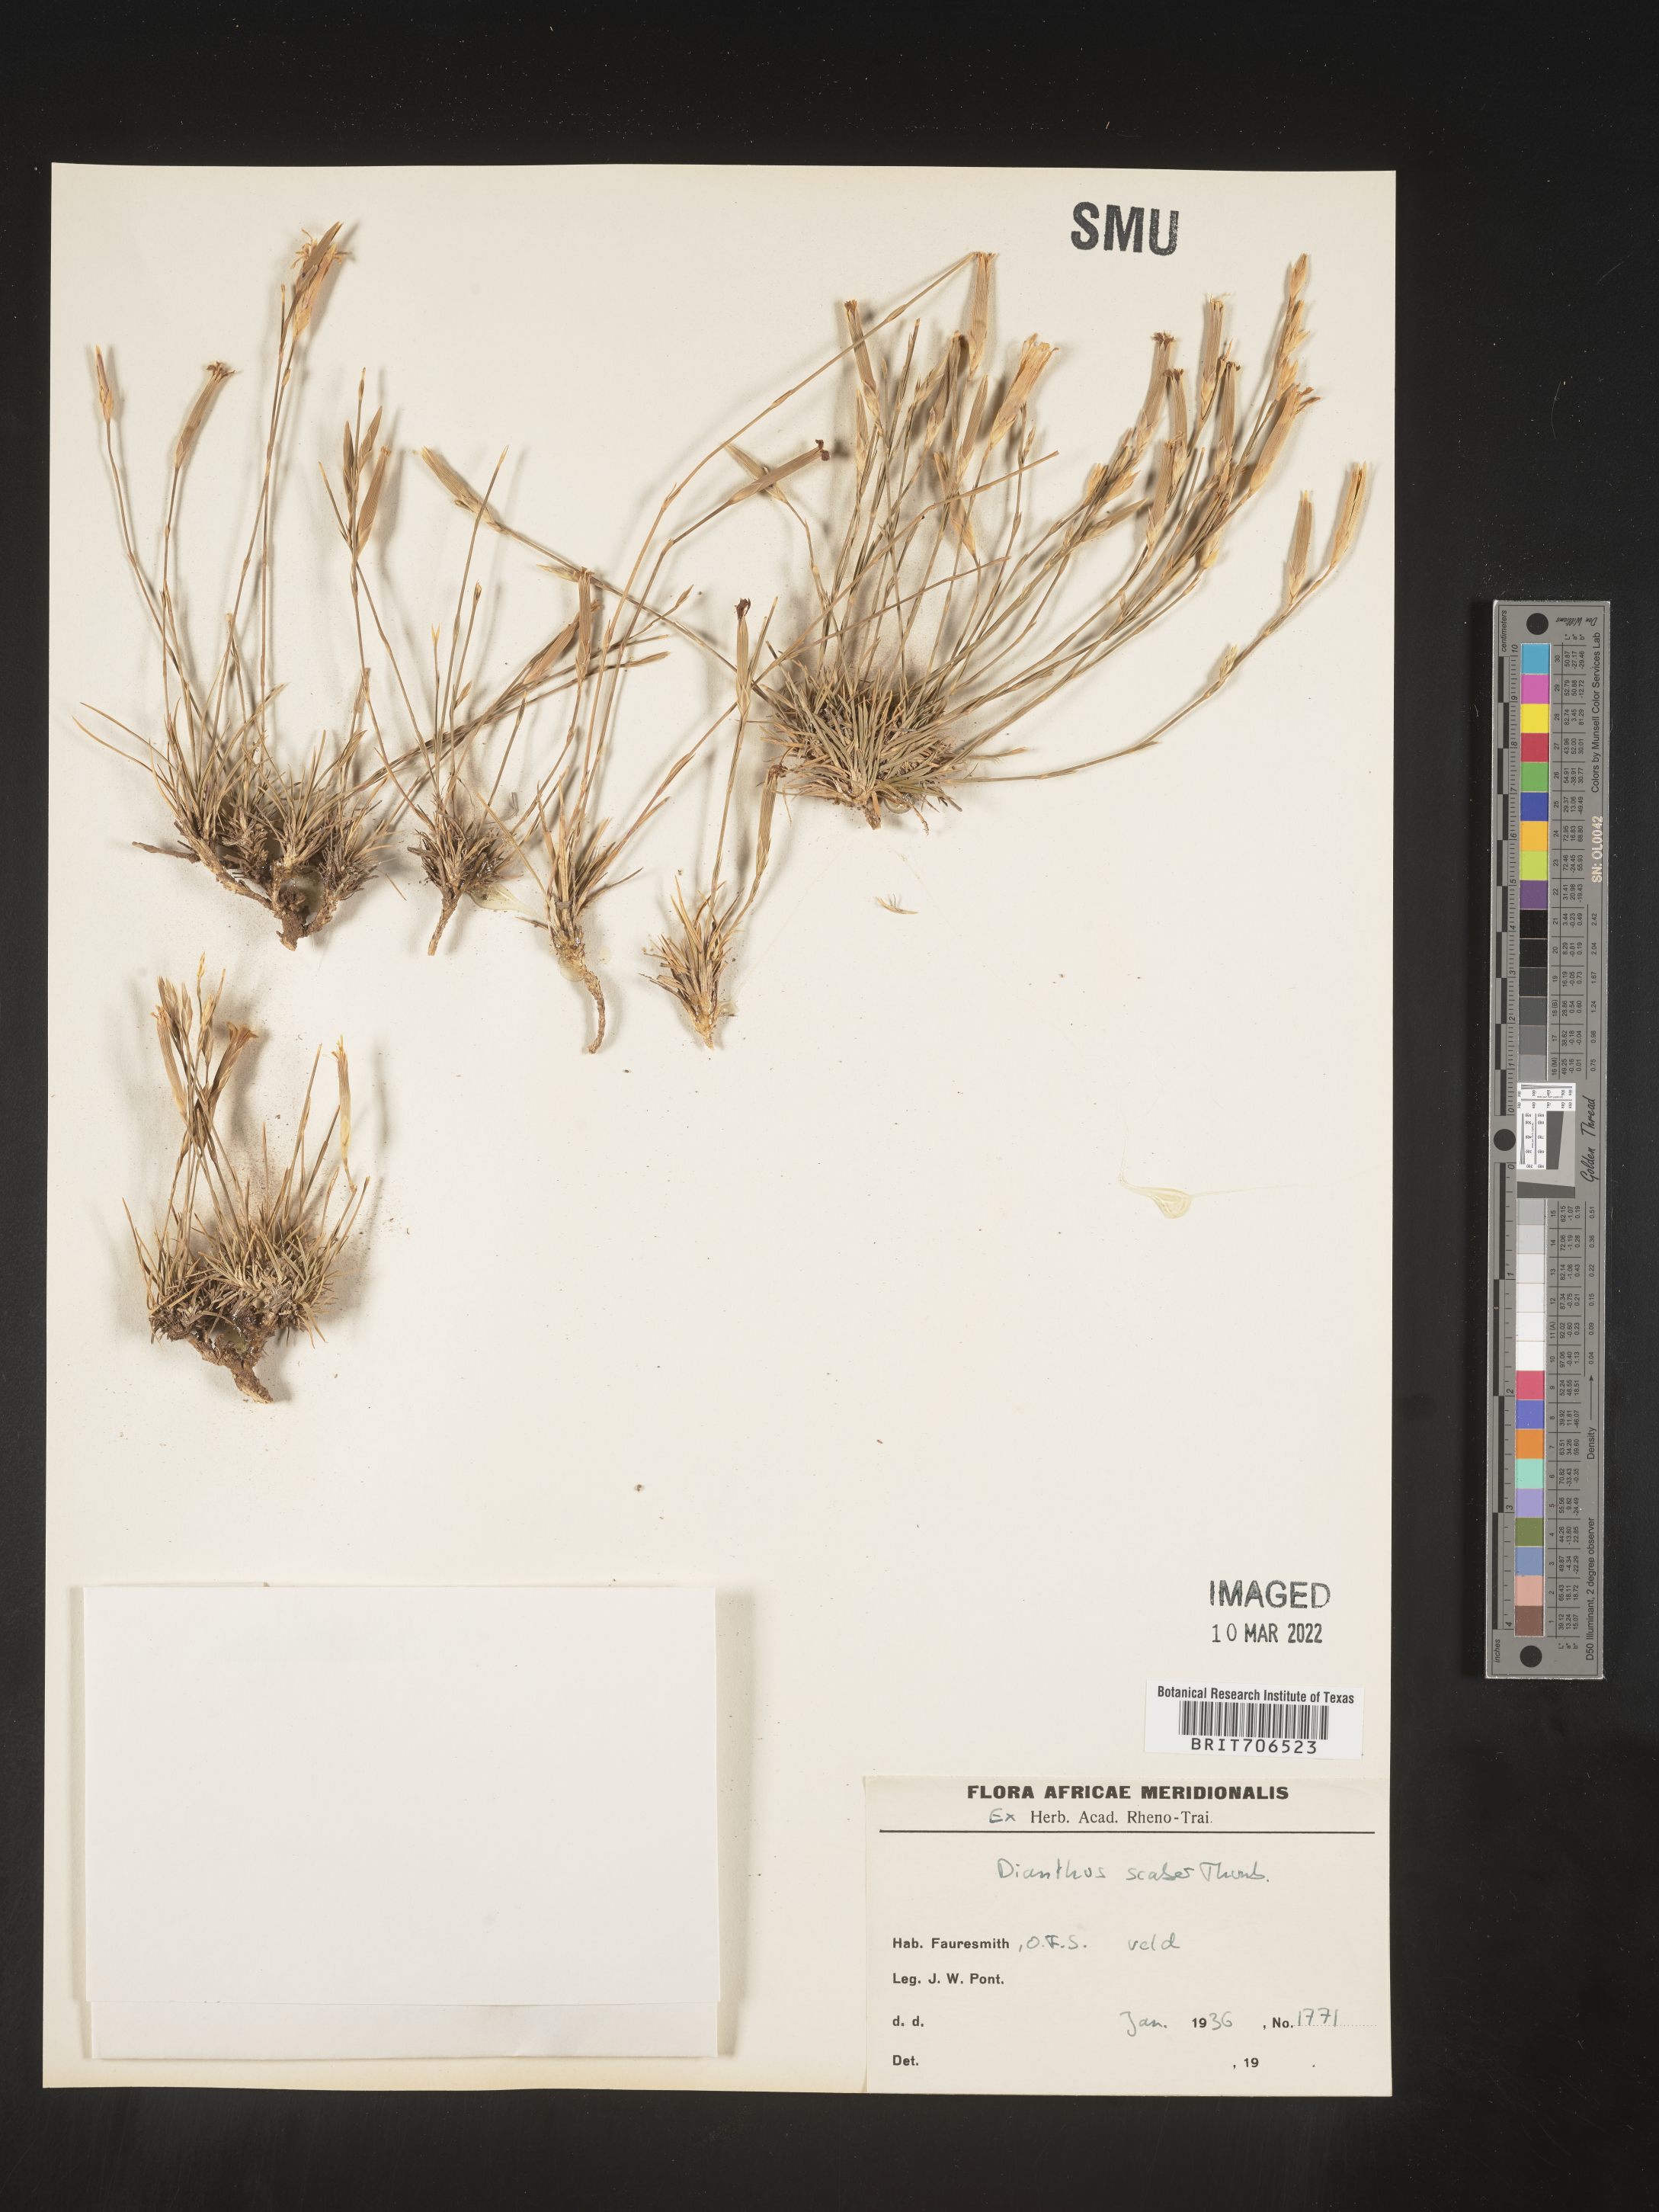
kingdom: Plantae
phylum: Tracheophyta
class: Magnoliopsida
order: Caryophyllales
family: Caryophyllaceae
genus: Dianthus
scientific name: Dianthus
